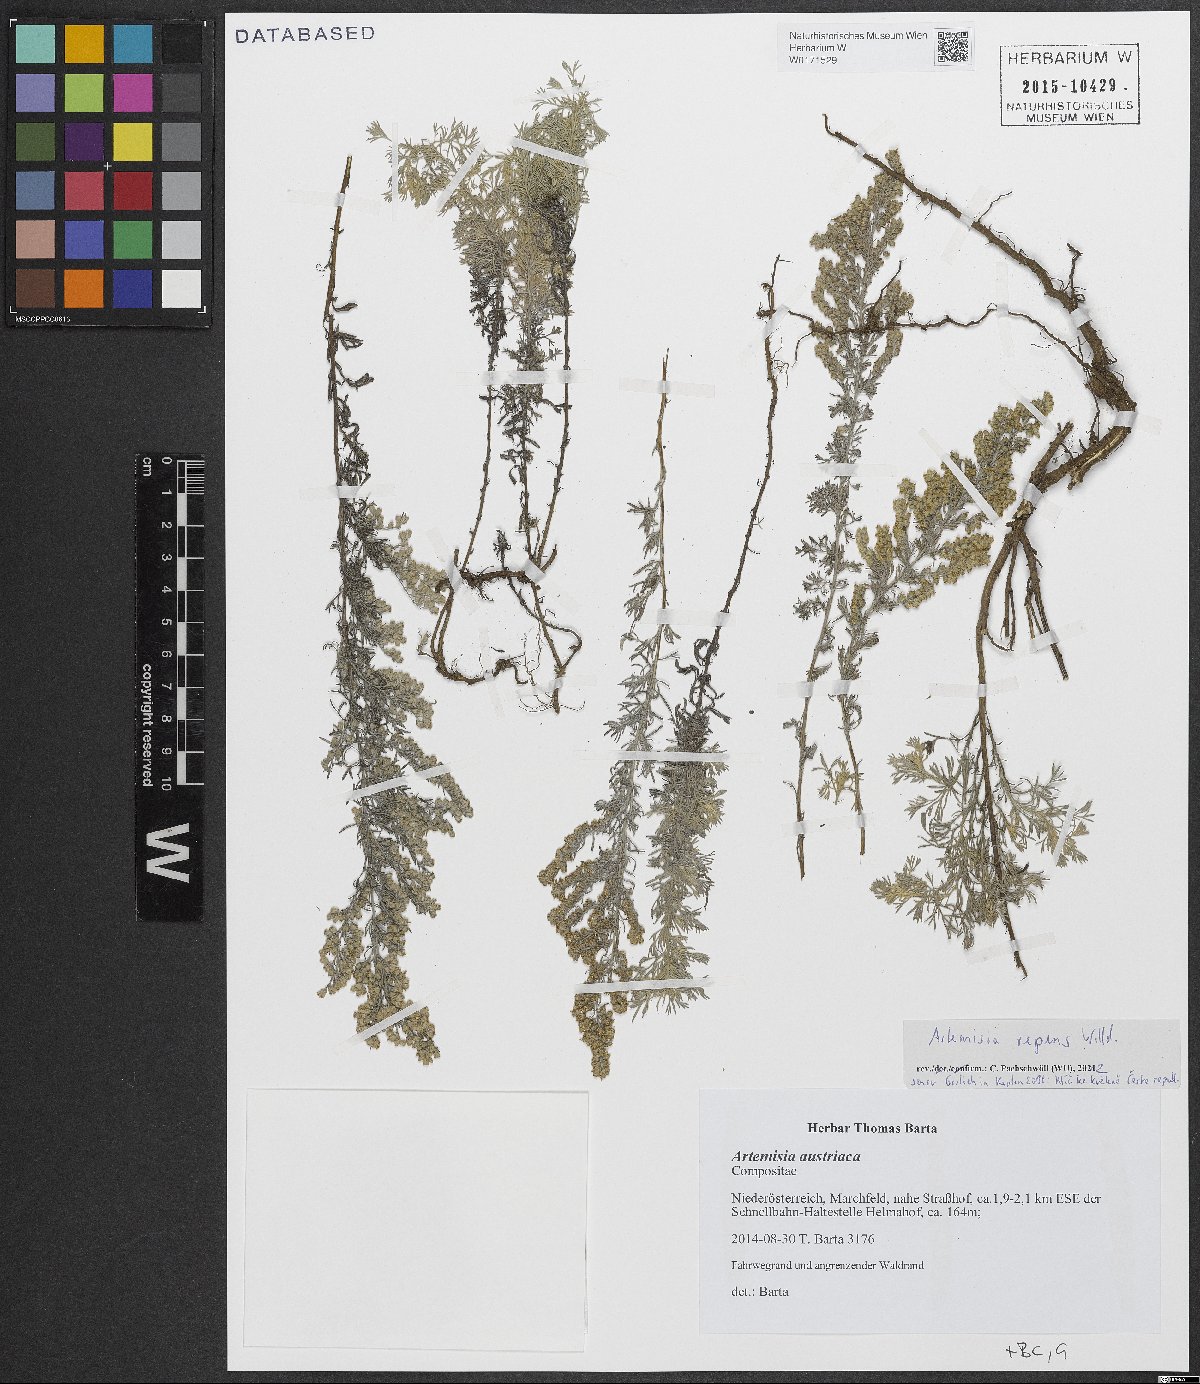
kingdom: Plantae
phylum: Tracheophyta
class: Magnoliopsida
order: Asterales
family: Asteraceae
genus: Artemisia
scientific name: Artemisia repens
